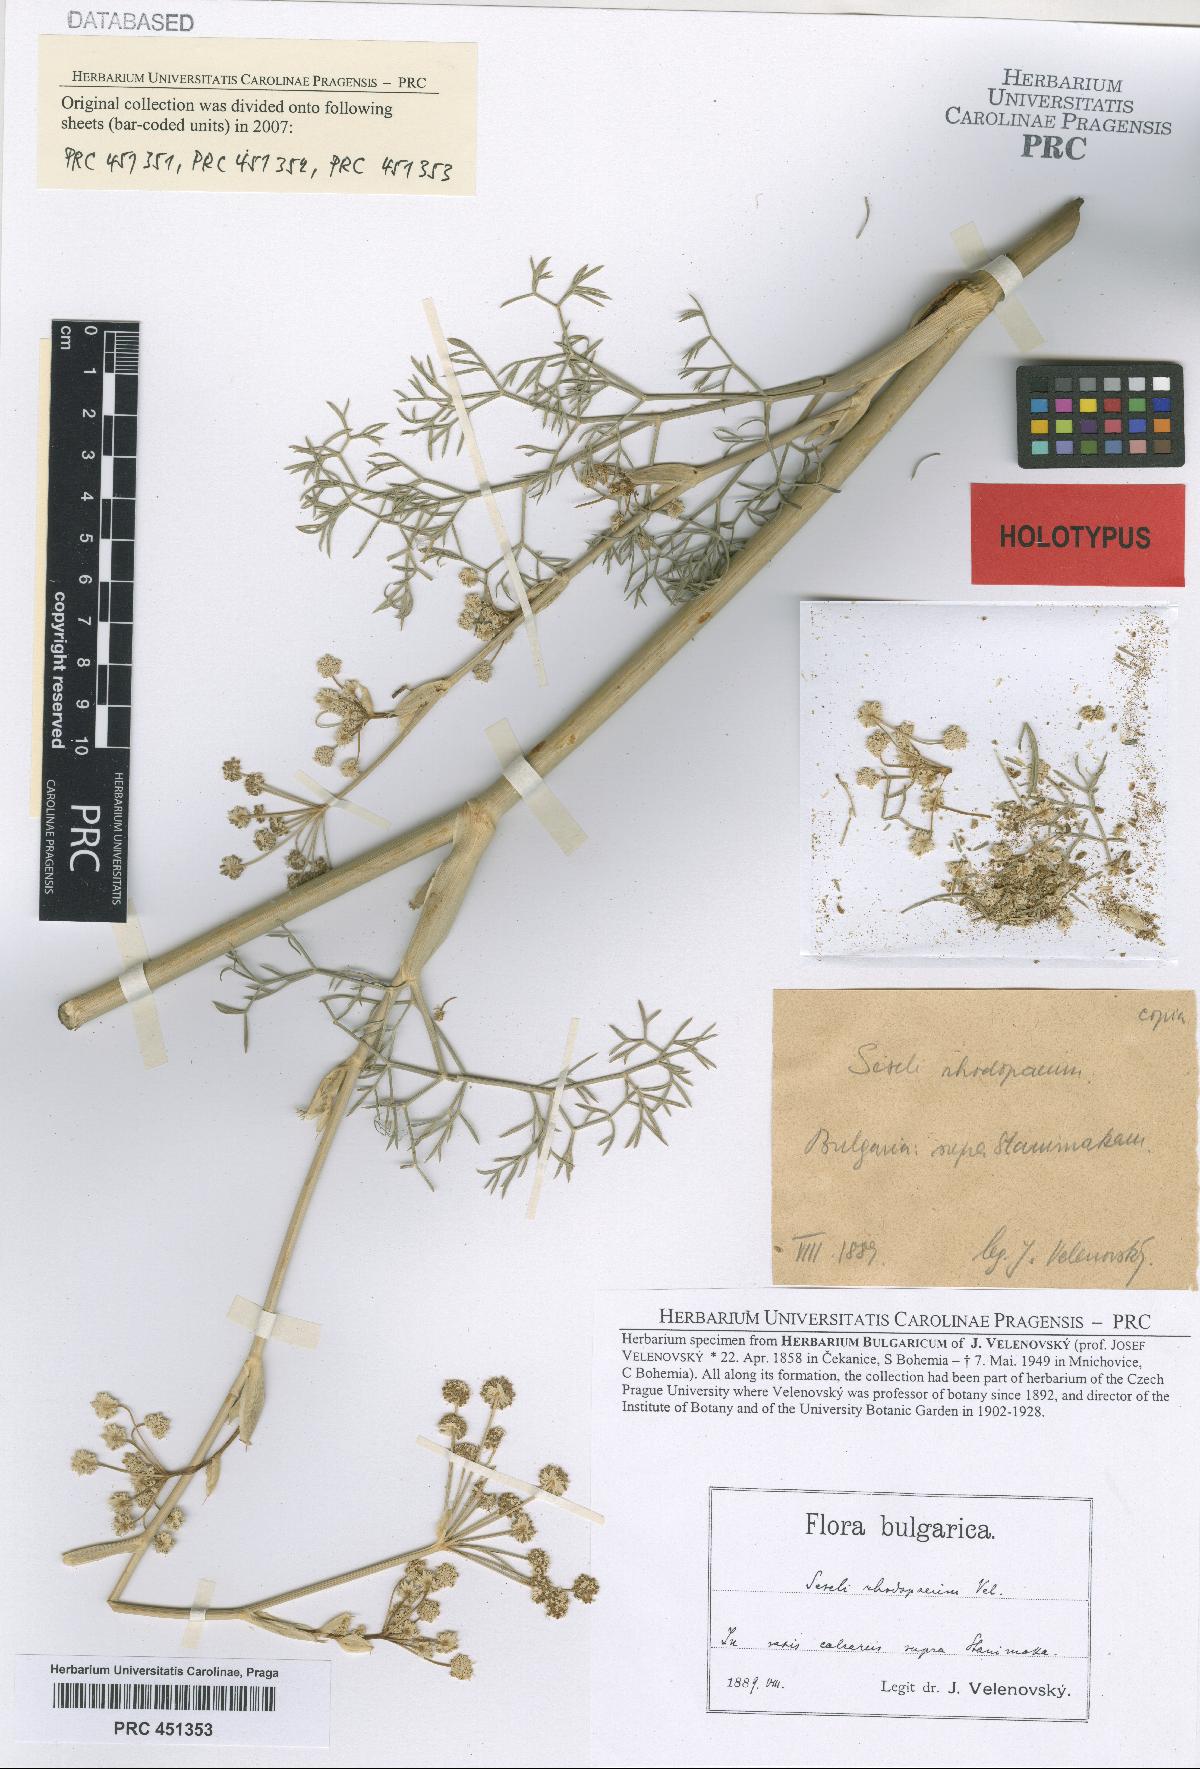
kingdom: Plantae
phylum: Tracheophyta
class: Magnoliopsida
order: Apiales
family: Apiaceae
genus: Seseli
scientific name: Seseli rhodopeum
